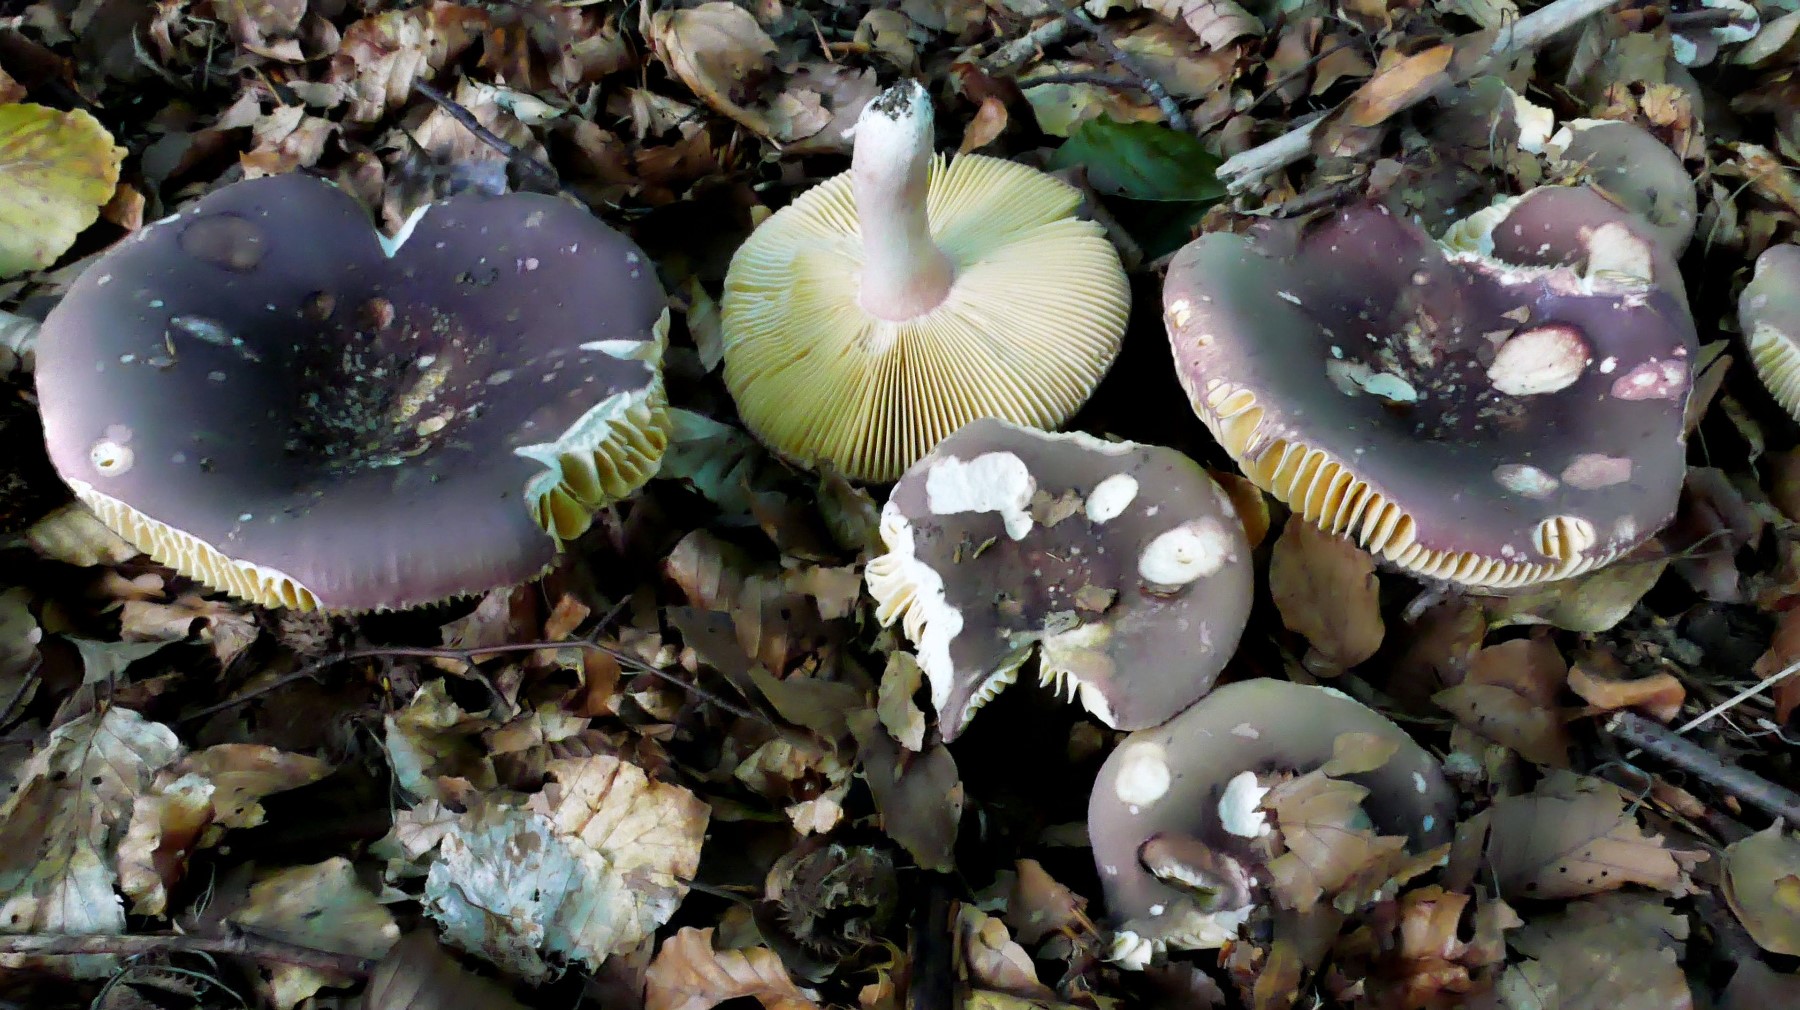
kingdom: Fungi
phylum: Basidiomycota
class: Agaricomycetes
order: Russulales
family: Russulaceae
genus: Russula
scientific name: Russula olivacea
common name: stor skørhat
